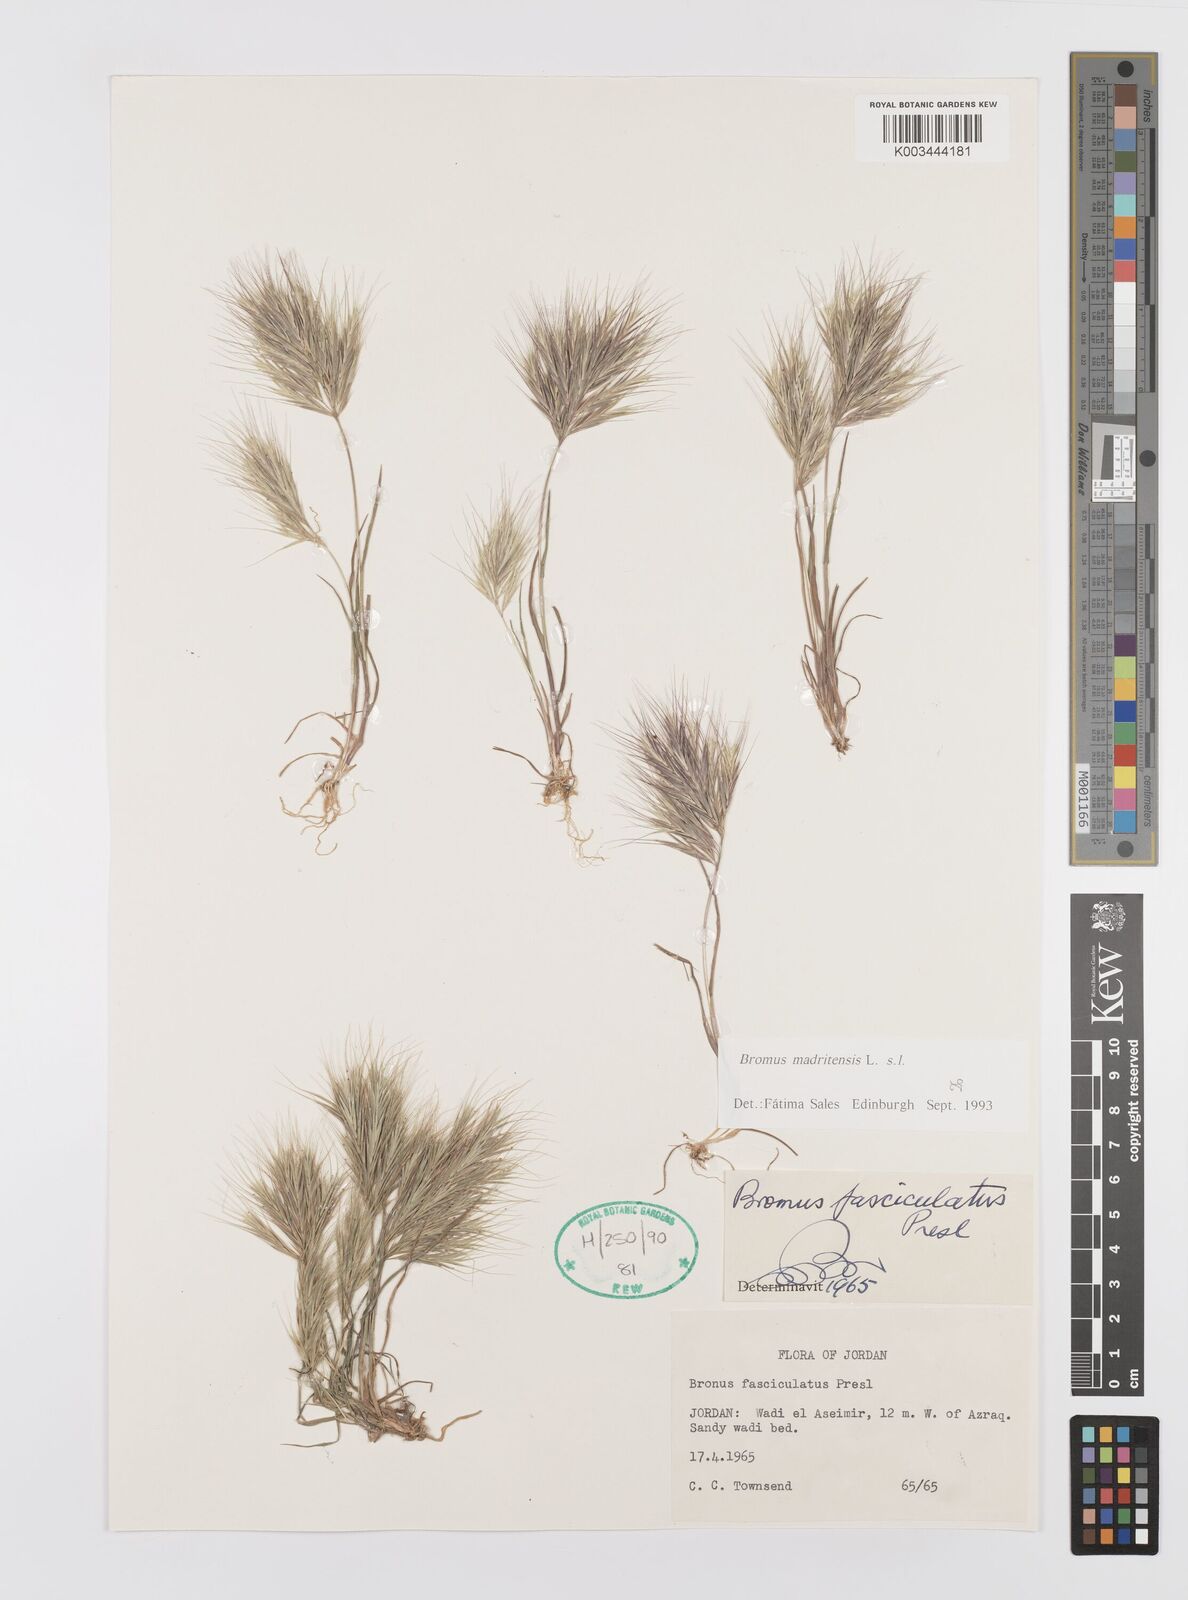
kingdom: Plantae
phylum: Tracheophyta
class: Liliopsida
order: Poales
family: Poaceae
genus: Bromus
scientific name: Bromus madritensis
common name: Compact brome
